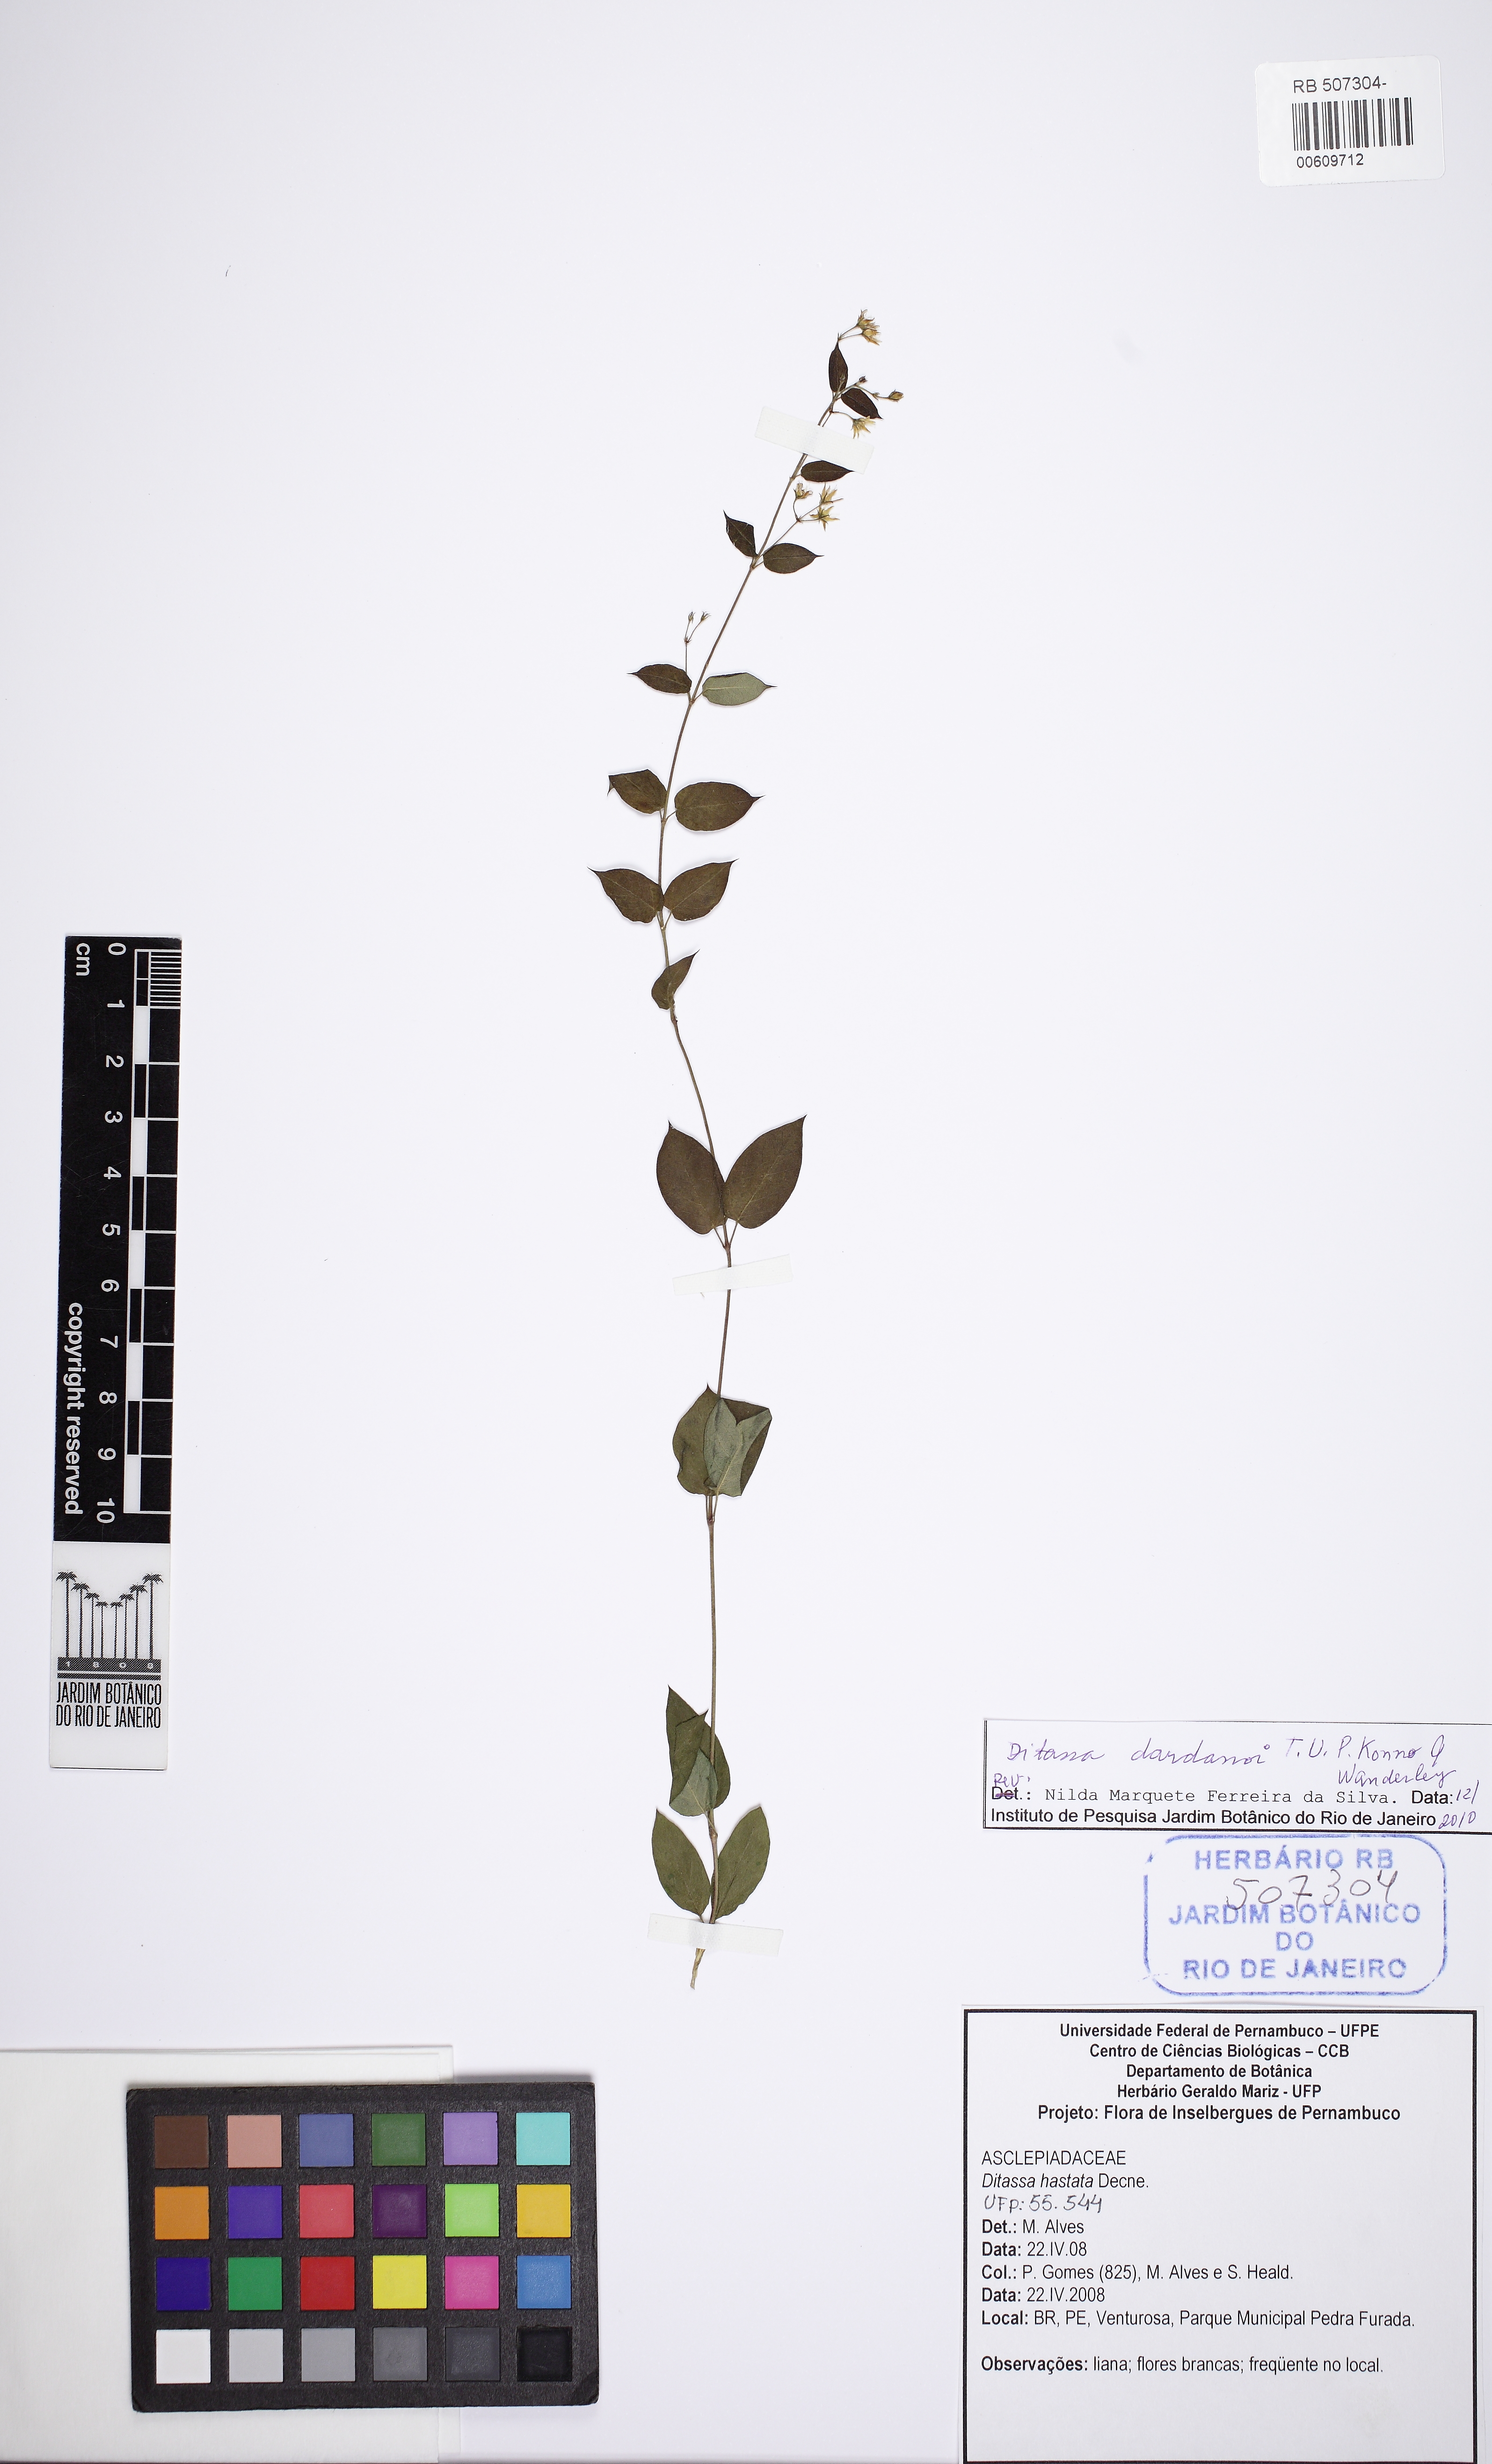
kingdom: Plantae
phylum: Tracheophyta
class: Magnoliopsida
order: Gentianales
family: Apocynaceae
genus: Ditassa
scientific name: Ditassa dardanoi
